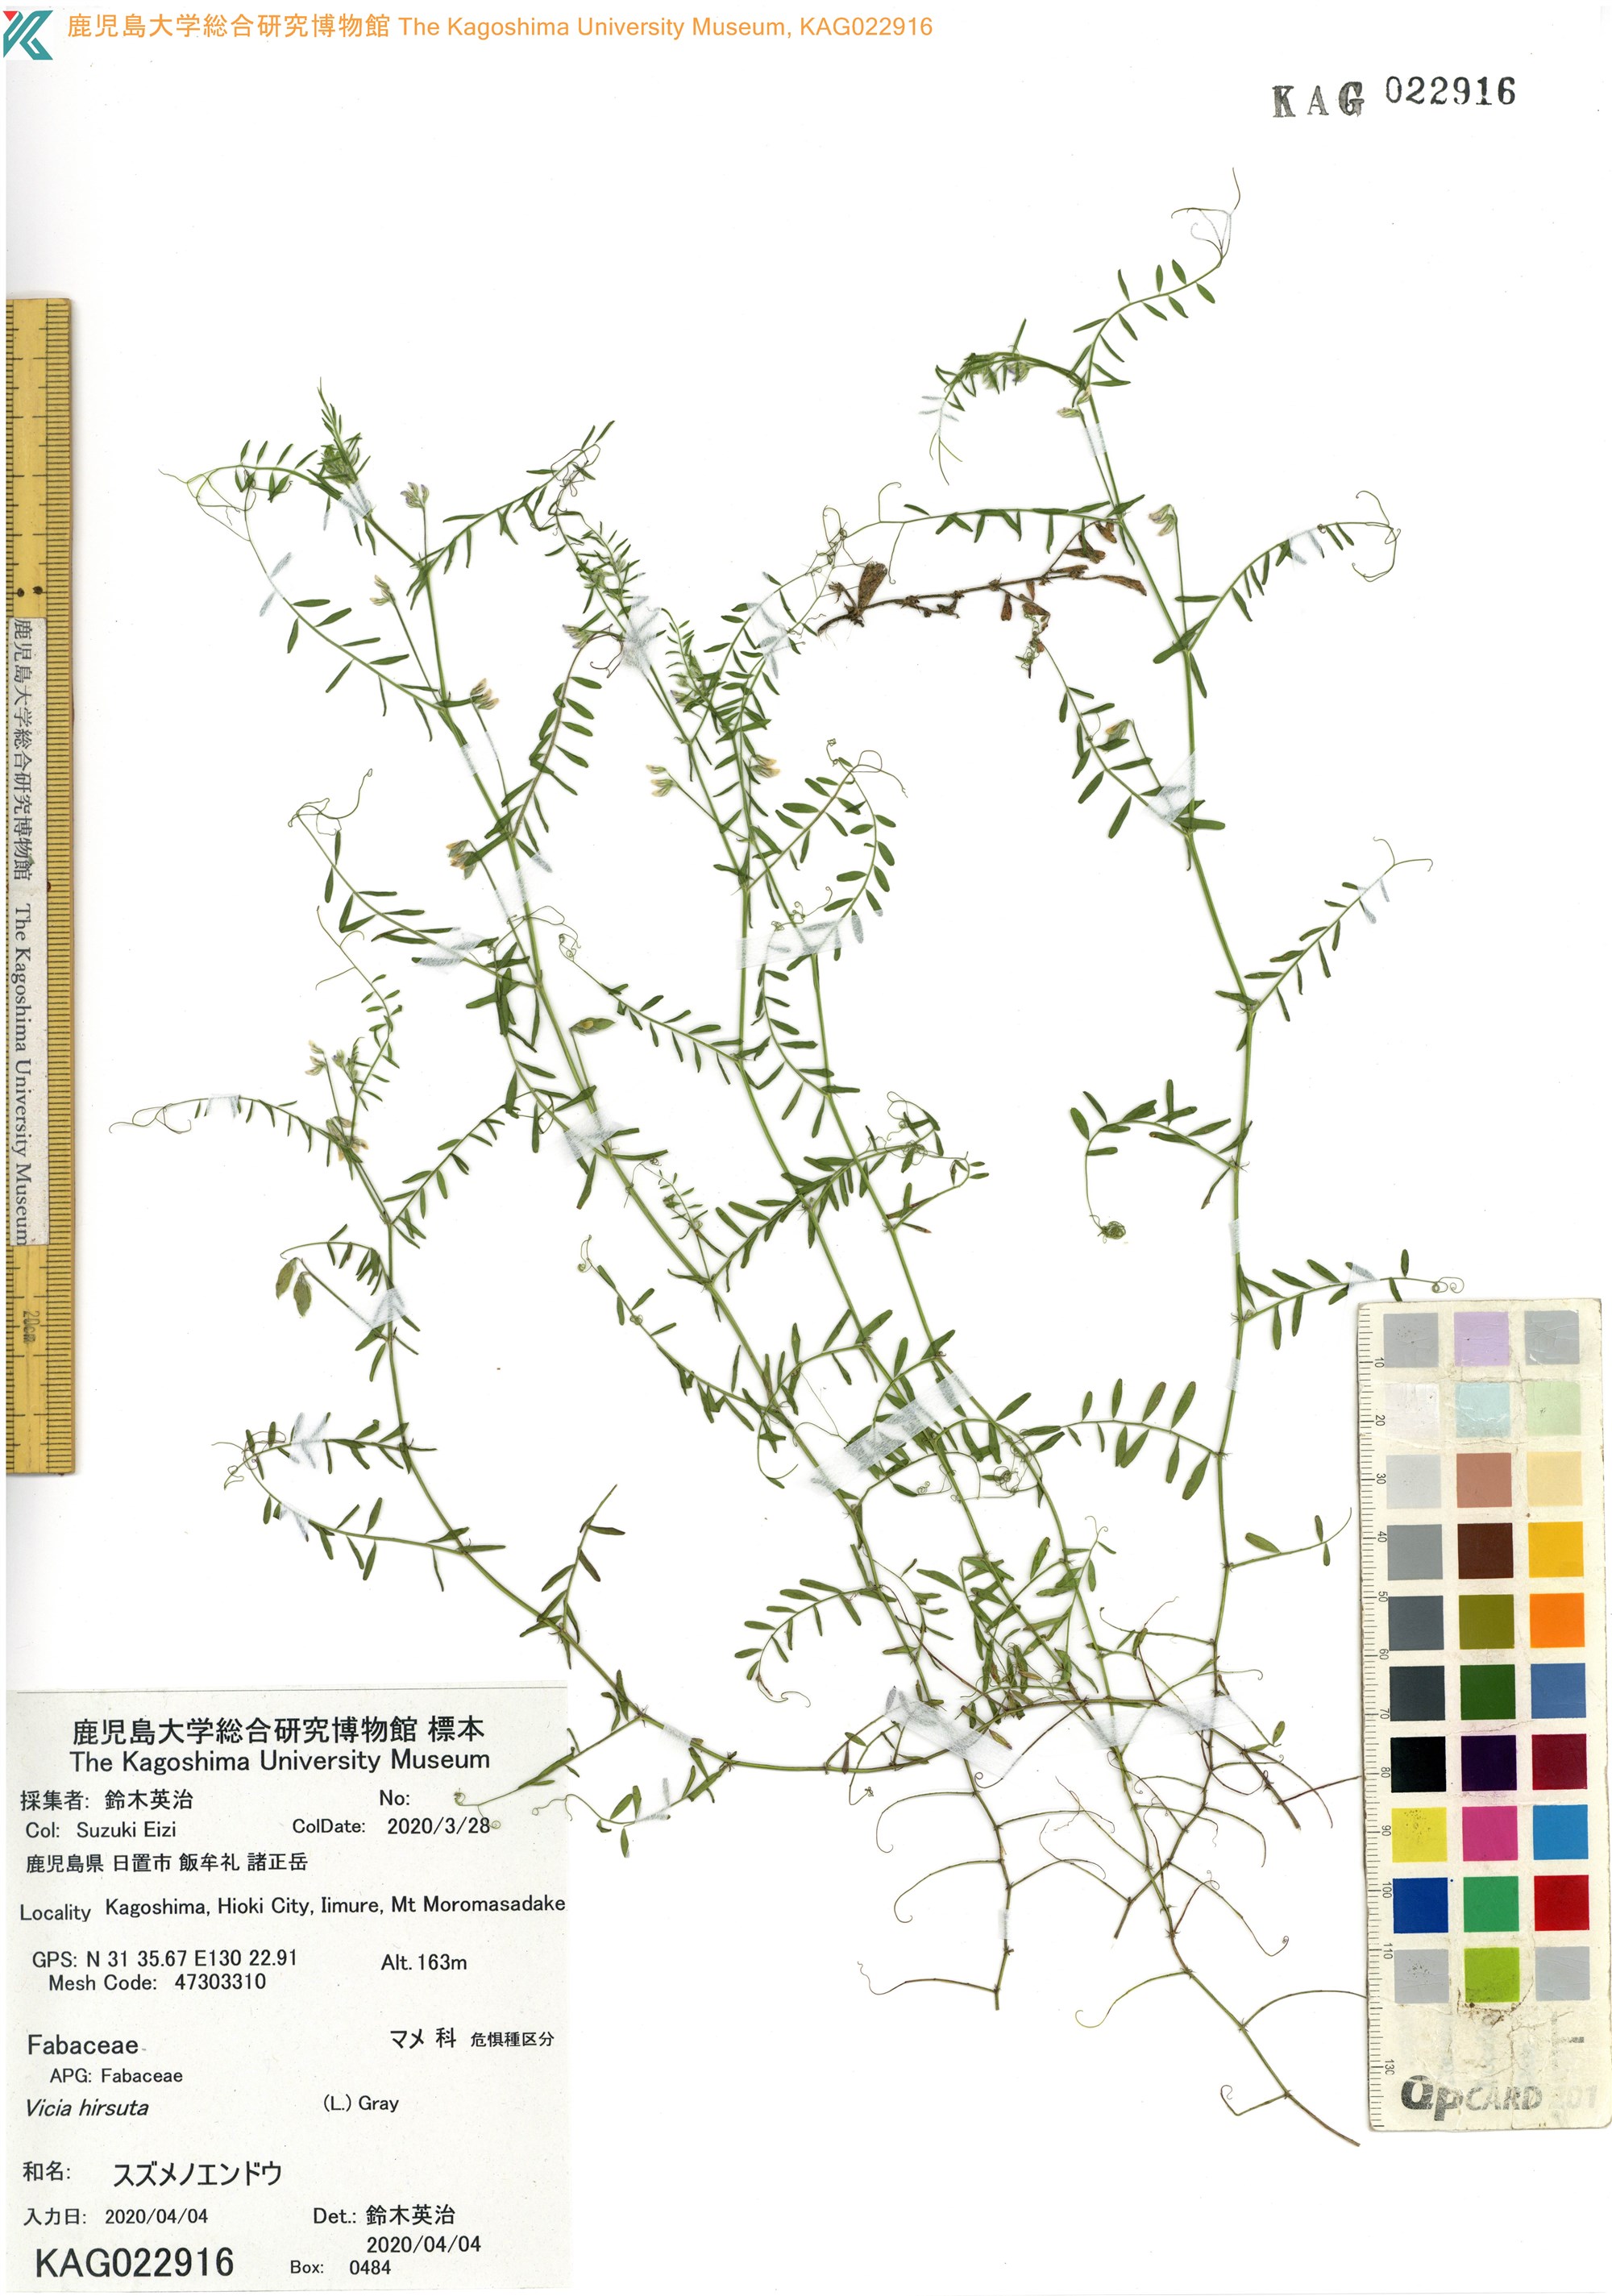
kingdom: Plantae
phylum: Tracheophyta
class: Magnoliopsida
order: Fabales
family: Fabaceae
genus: Vicia
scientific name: Vicia hirsuta
